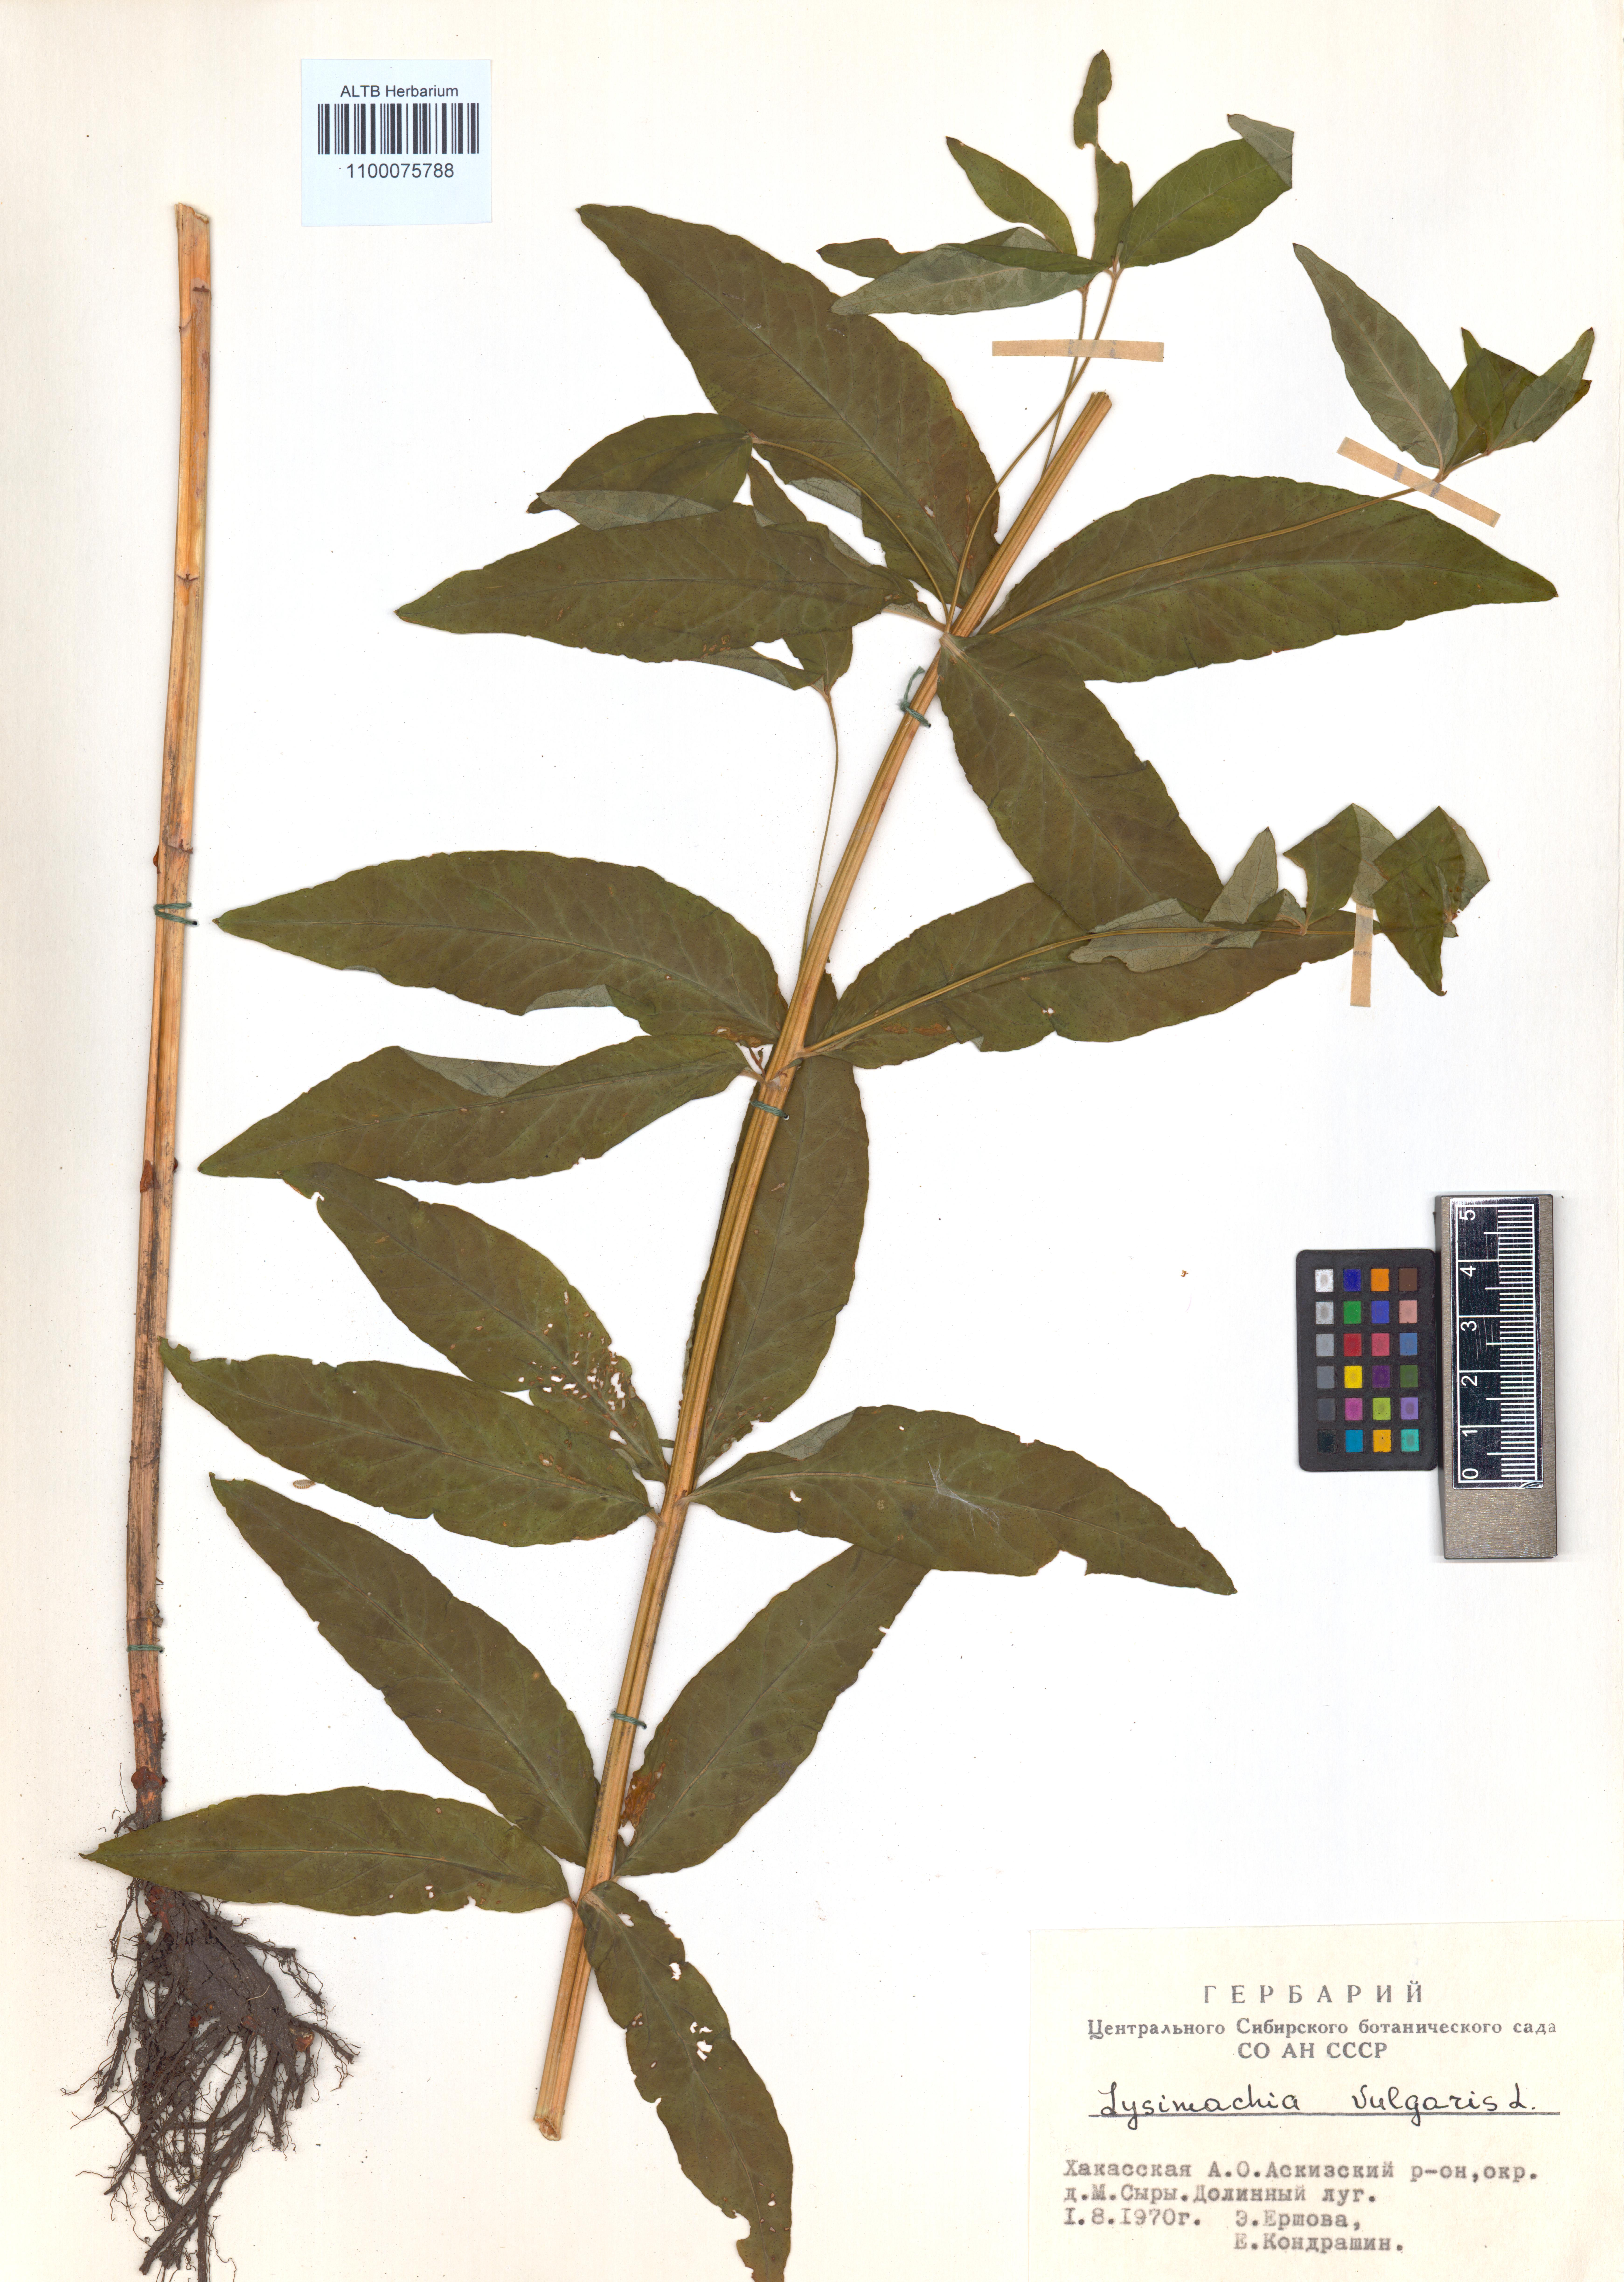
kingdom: Plantae
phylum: Tracheophyta
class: Magnoliopsida
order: Ericales
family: Primulaceae
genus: Lysimachia
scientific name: Lysimachia vulgaris
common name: Yellow loosestrife
